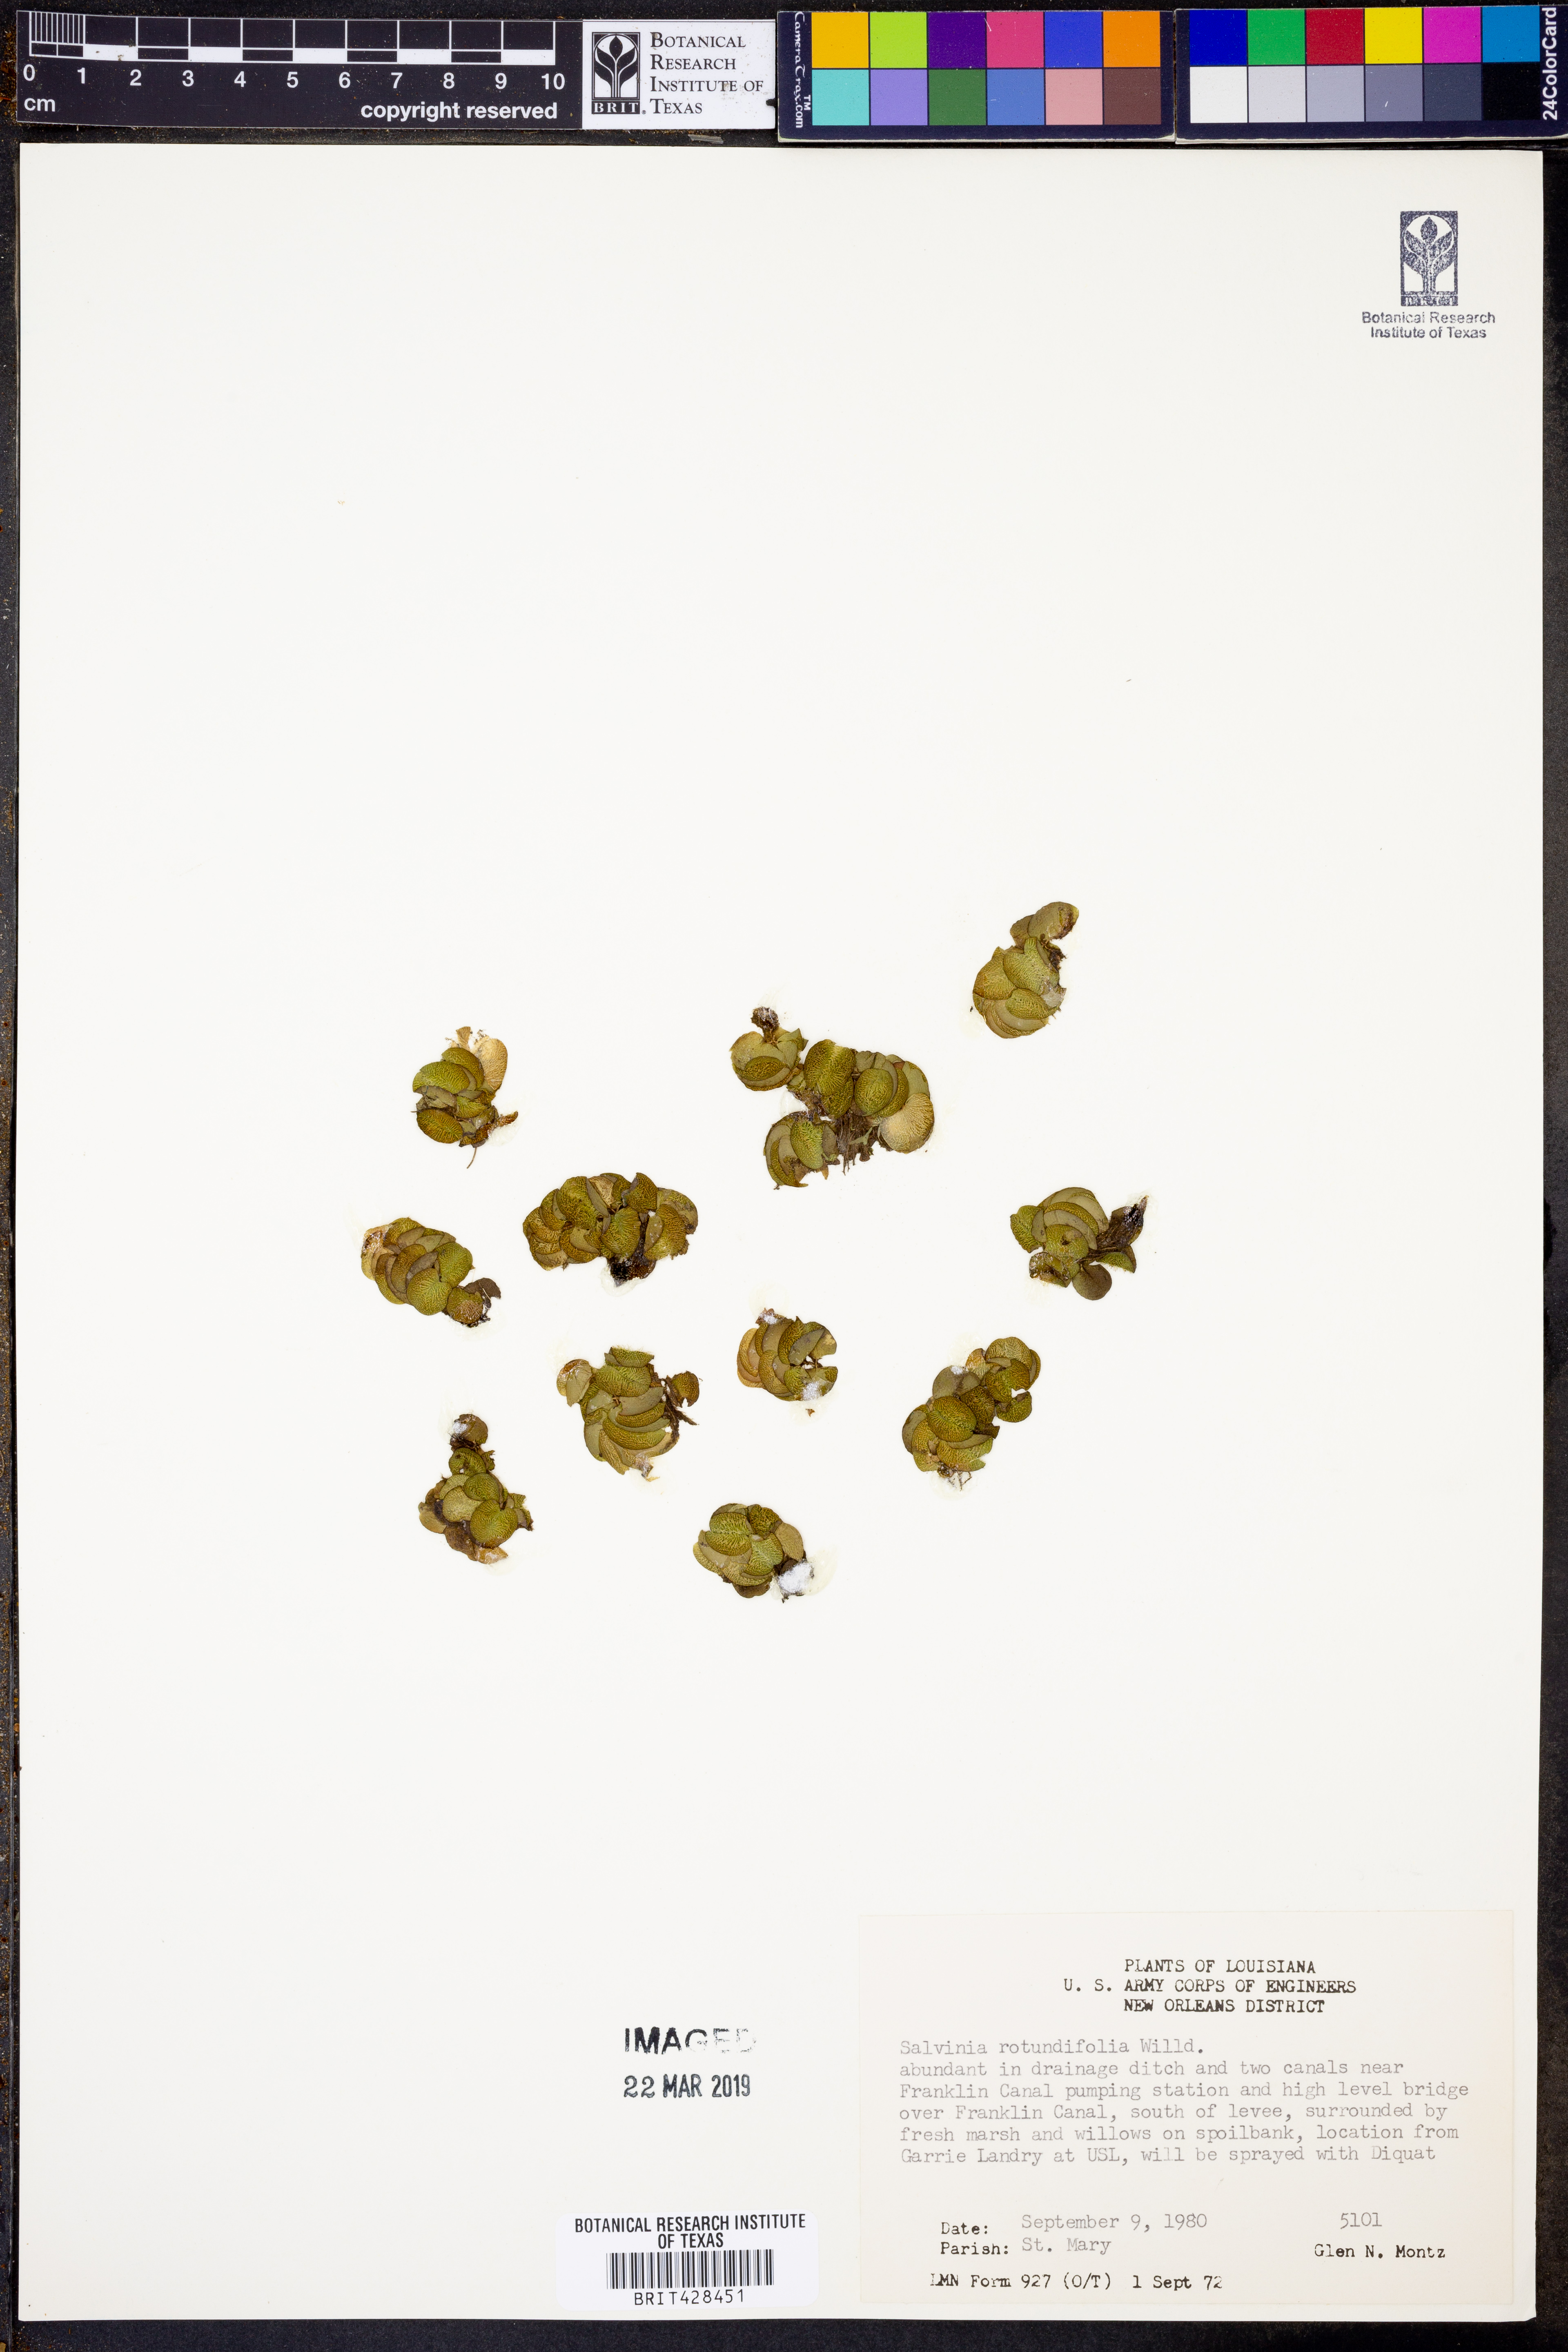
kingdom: Plantae
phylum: Tracheophyta
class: Polypodiopsida
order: Salviniales
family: Salviniaceae
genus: Salvinia
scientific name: Salvinia auriculata
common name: African payal
